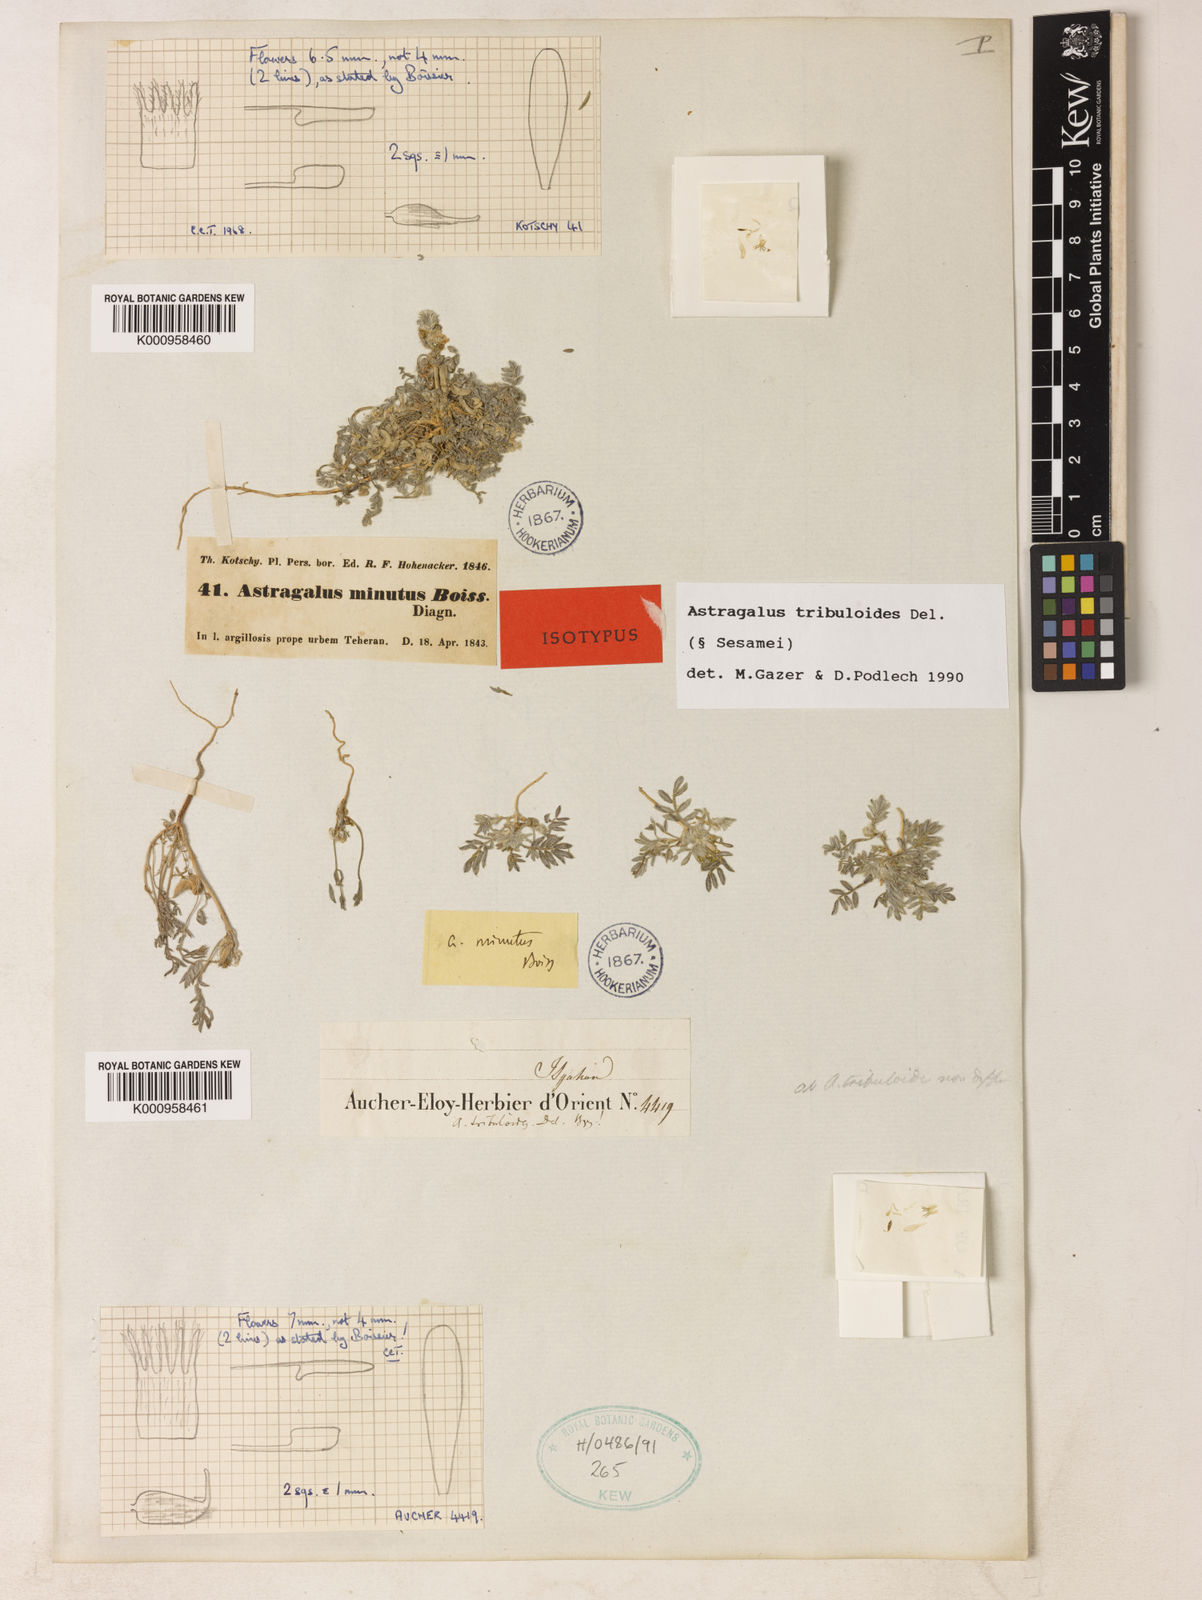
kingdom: Plantae
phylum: Tracheophyta
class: Magnoliopsida
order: Fabales
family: Fabaceae
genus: Astragalus
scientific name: Astragalus tribuloides
